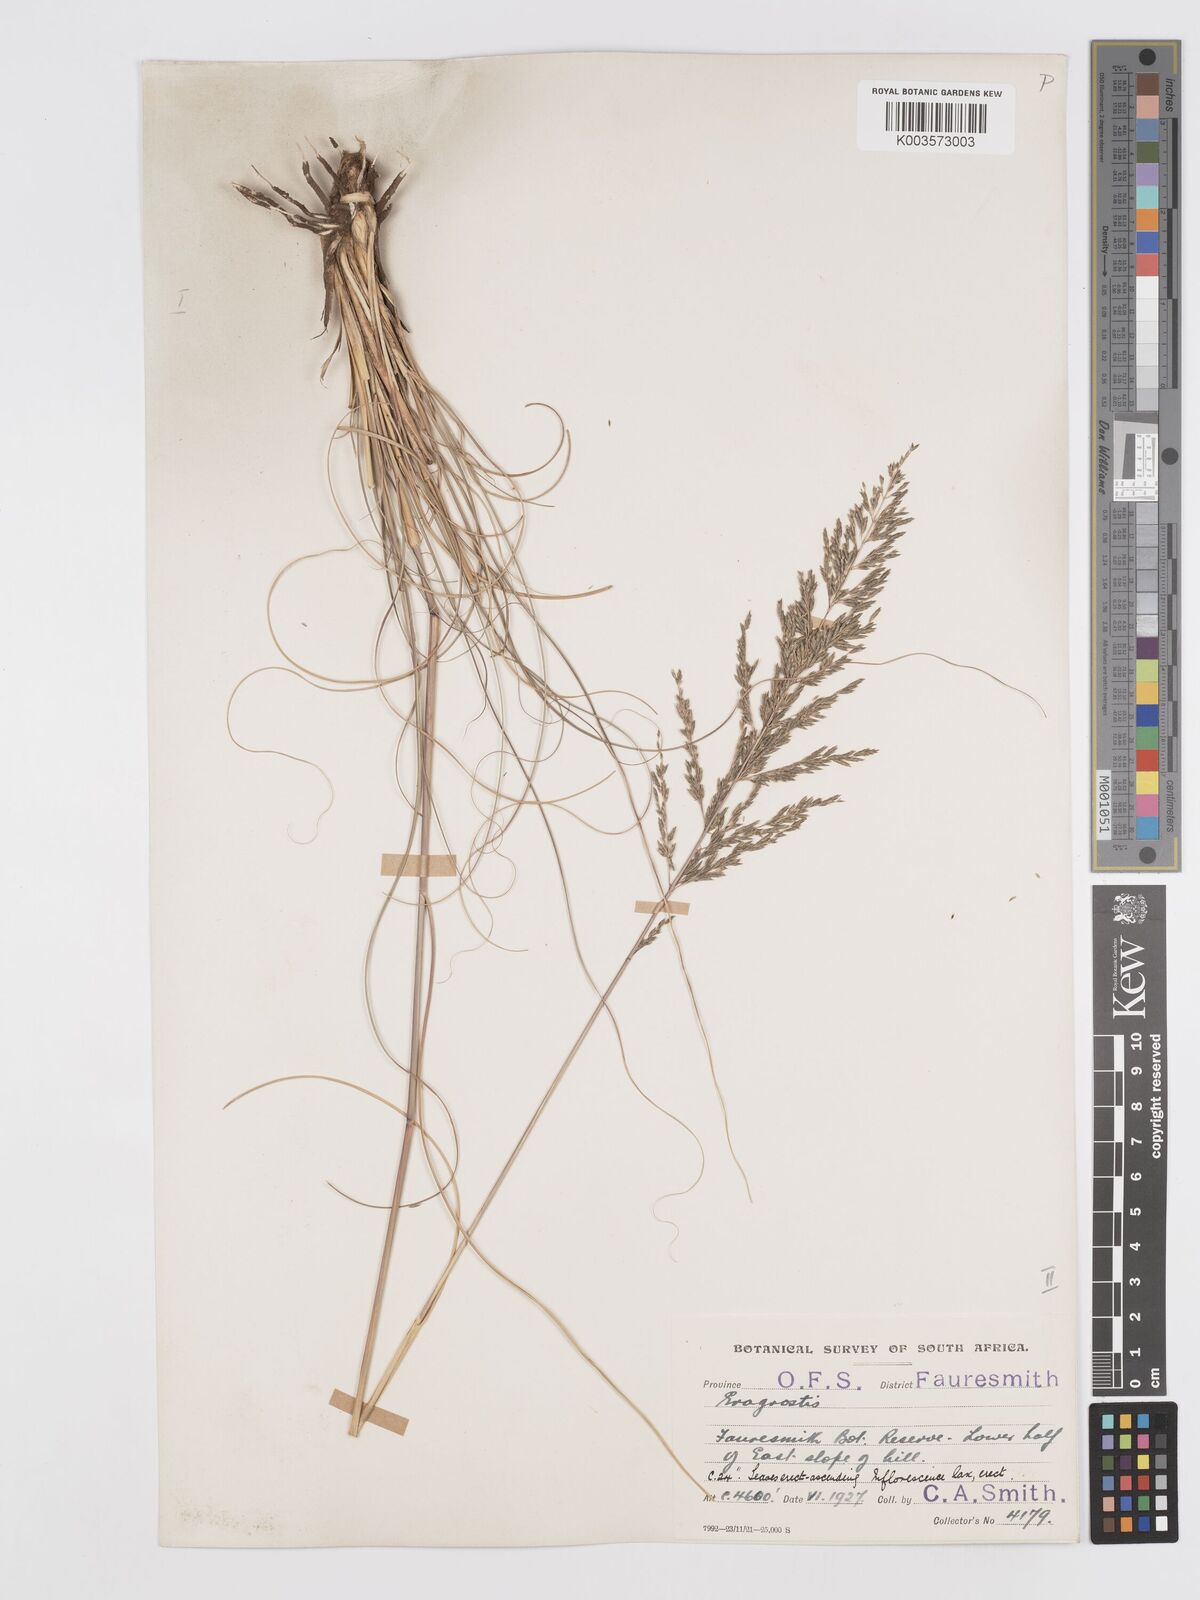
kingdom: Plantae
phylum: Tracheophyta
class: Liliopsida
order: Poales
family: Poaceae
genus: Eragrostis
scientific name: Eragrostis curvula
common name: African love-grass
